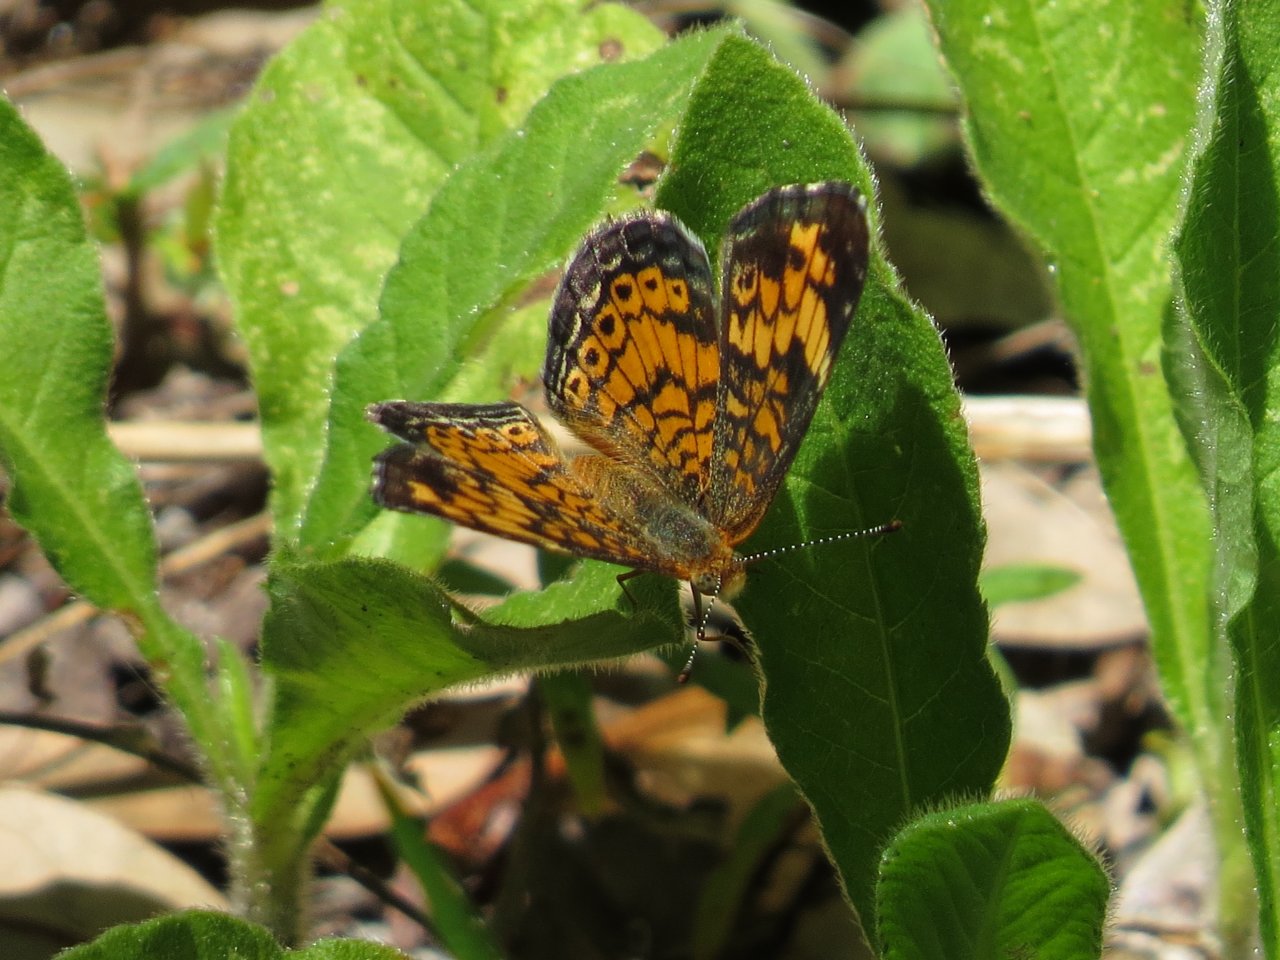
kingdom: Animalia
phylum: Arthropoda
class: Insecta
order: Lepidoptera
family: Nymphalidae
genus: Phyciodes
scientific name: Phyciodes tharos
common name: Pearl Crescent
